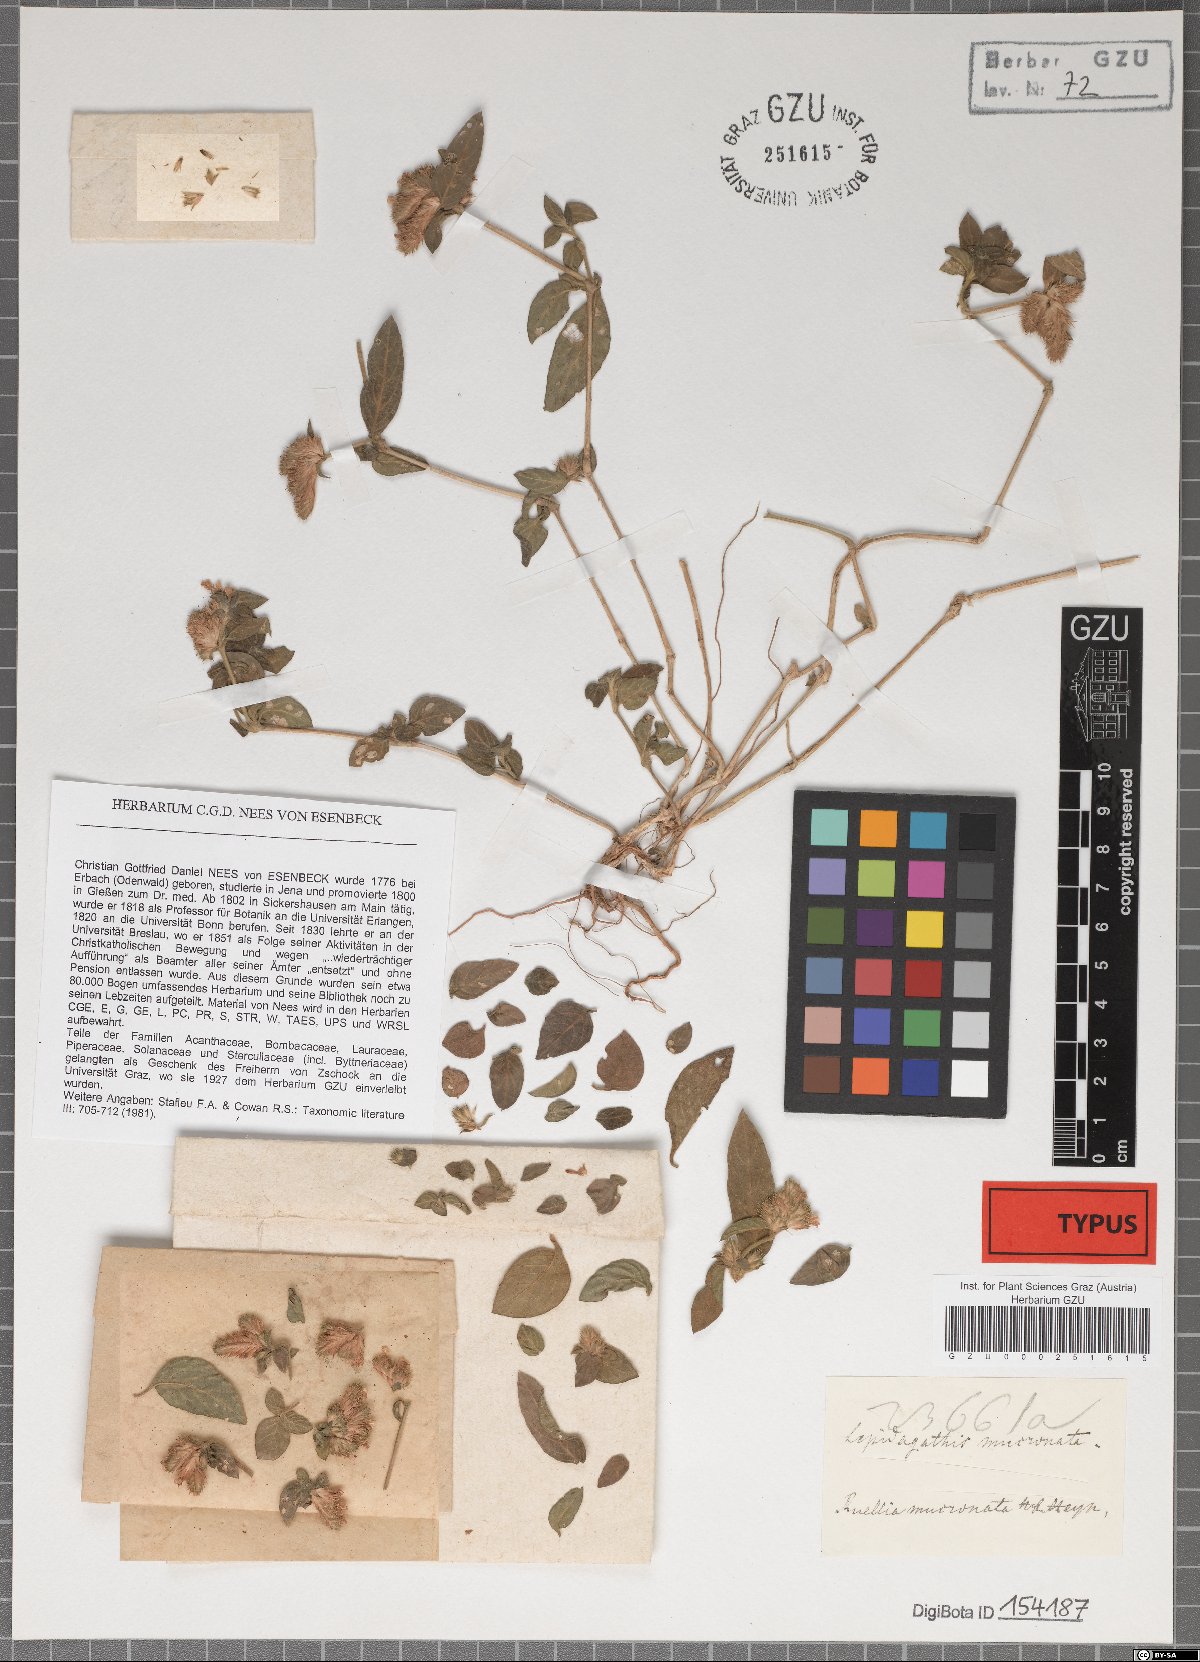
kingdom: Plantae
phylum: Tracheophyta
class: Magnoliopsida
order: Lamiales
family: Acanthaceae
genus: Lepidagathis
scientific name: Lepidagathis incurva
